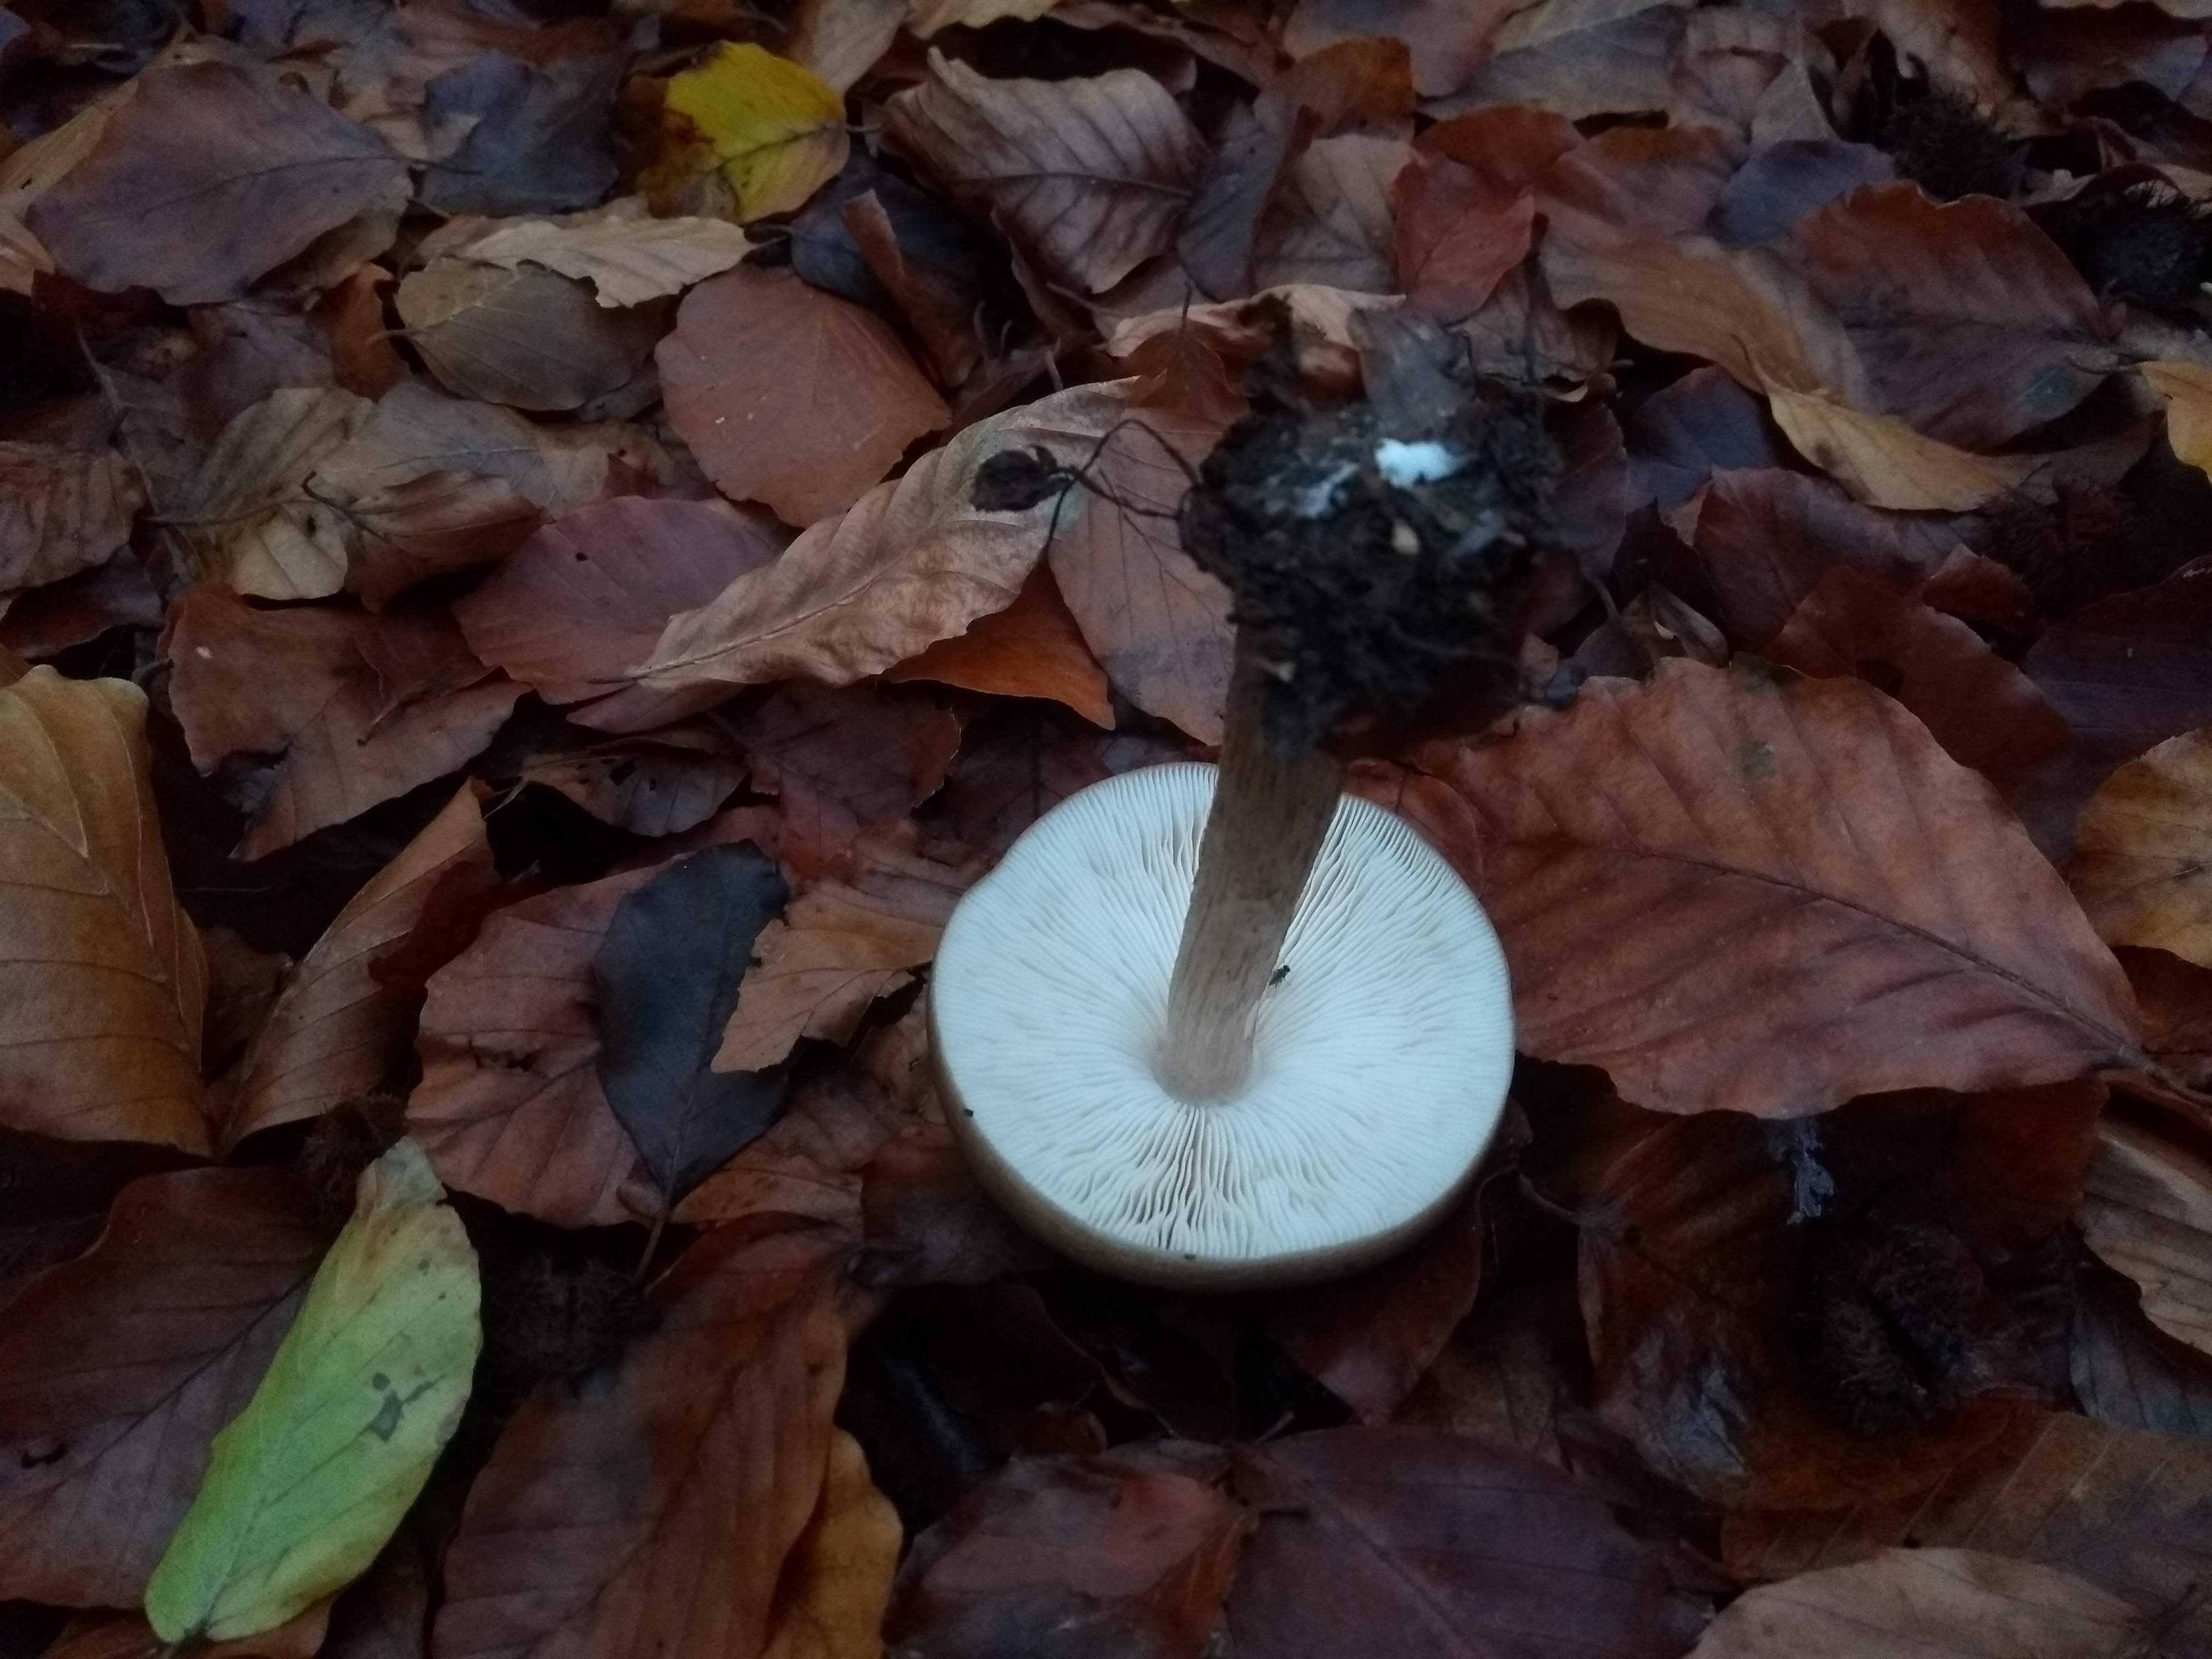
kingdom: Fungi
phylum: Basidiomycota
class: Agaricomycetes
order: Agaricales
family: Pluteaceae
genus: Pluteus
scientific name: Pluteus cervinus
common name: sodfarvet skærmhat
